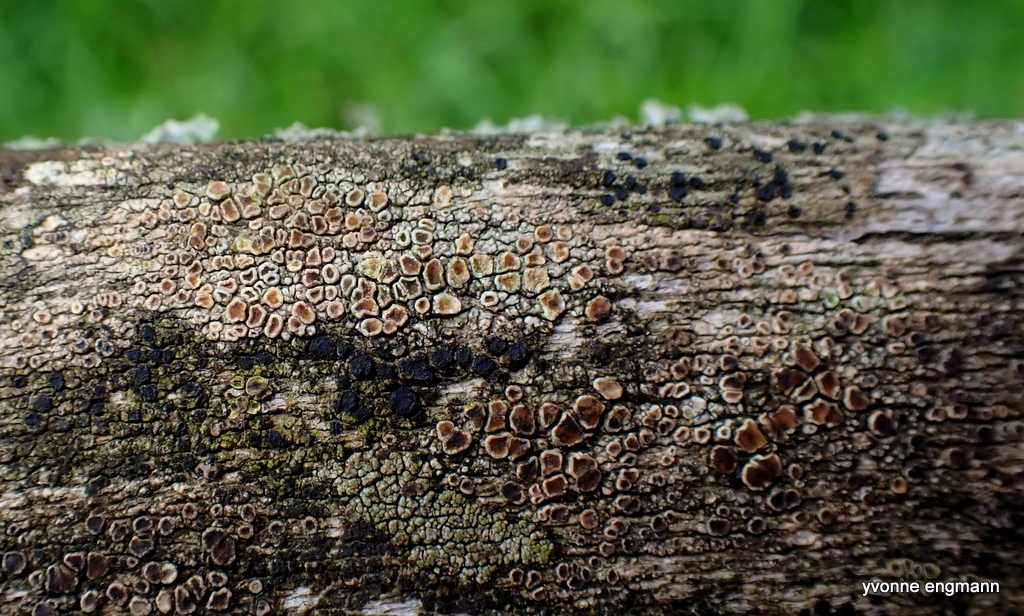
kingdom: Fungi
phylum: Ascomycota
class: Lecanoromycetes
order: Lecanorales
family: Lecanoraceae
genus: Lecanora
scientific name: Lecanora chlarotera
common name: brun kantskivelav
